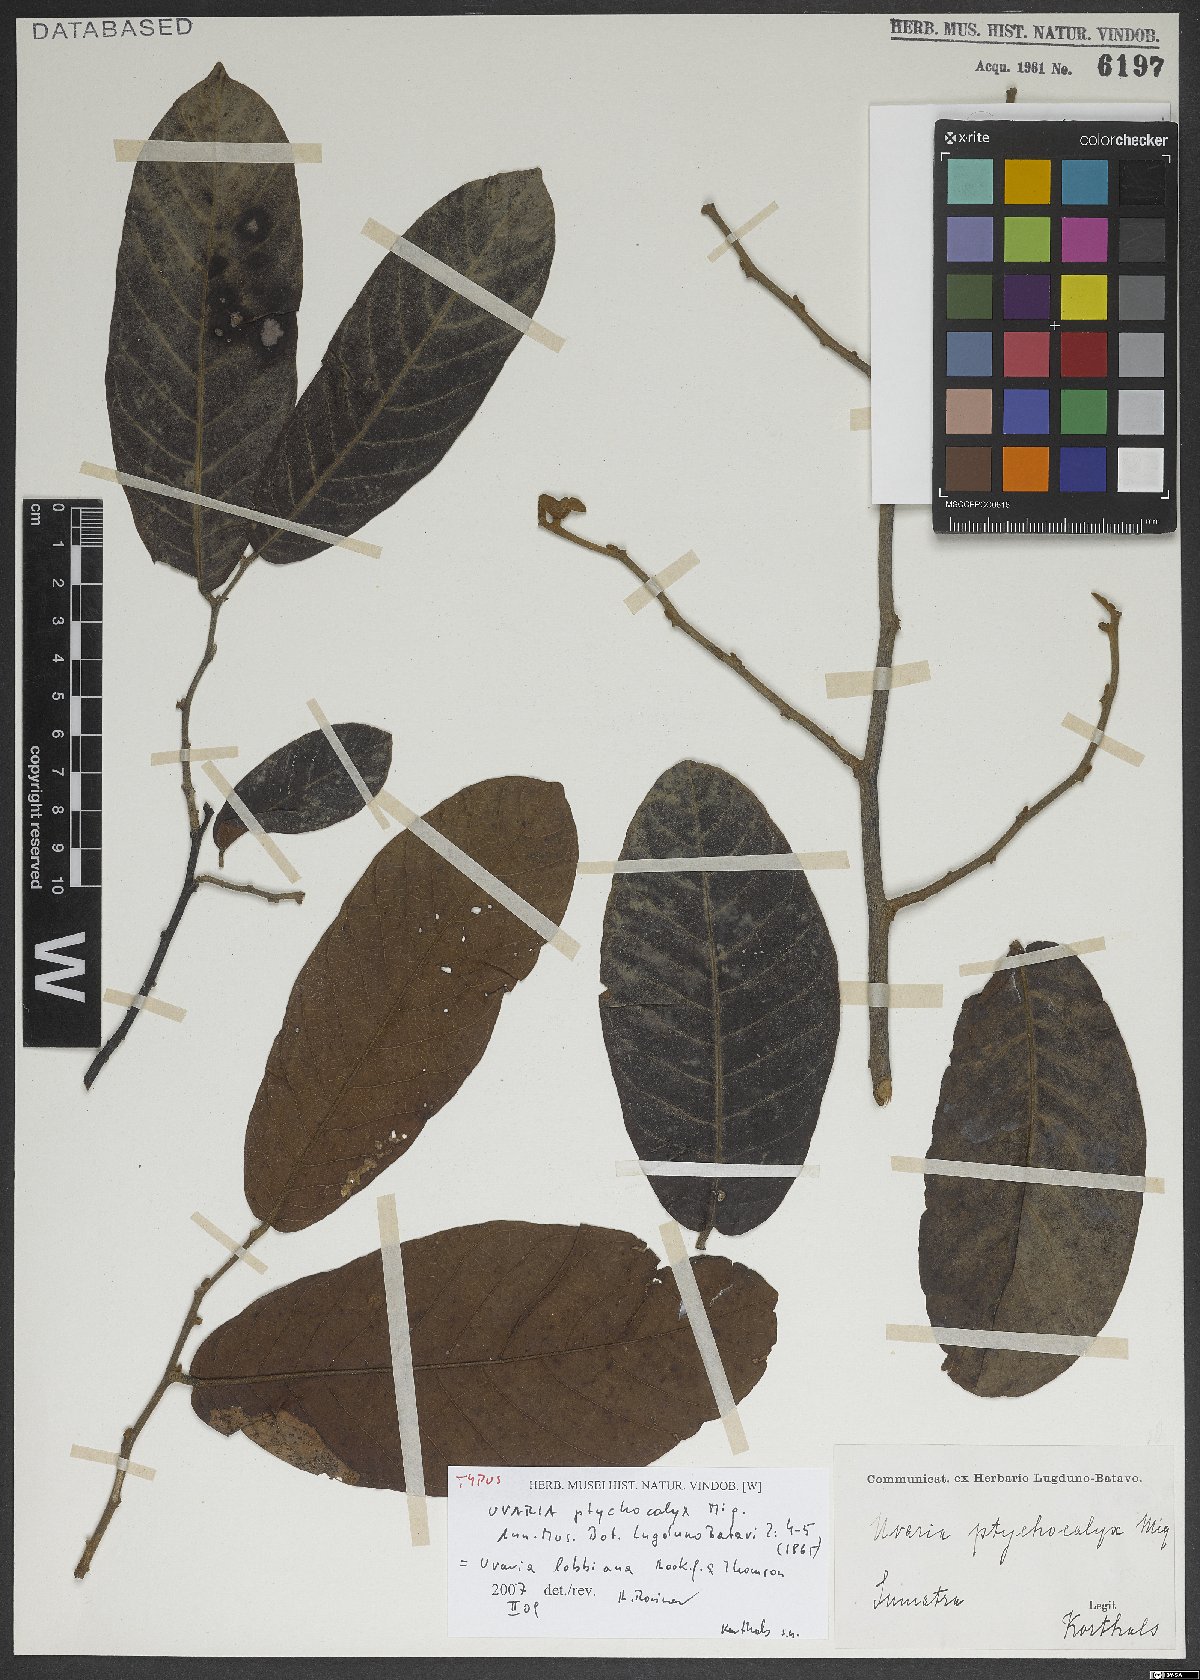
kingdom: Plantae
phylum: Tracheophyta
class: Magnoliopsida
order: Magnoliales
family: Annonaceae
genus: Uvaria
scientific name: Uvaria lobbiana
